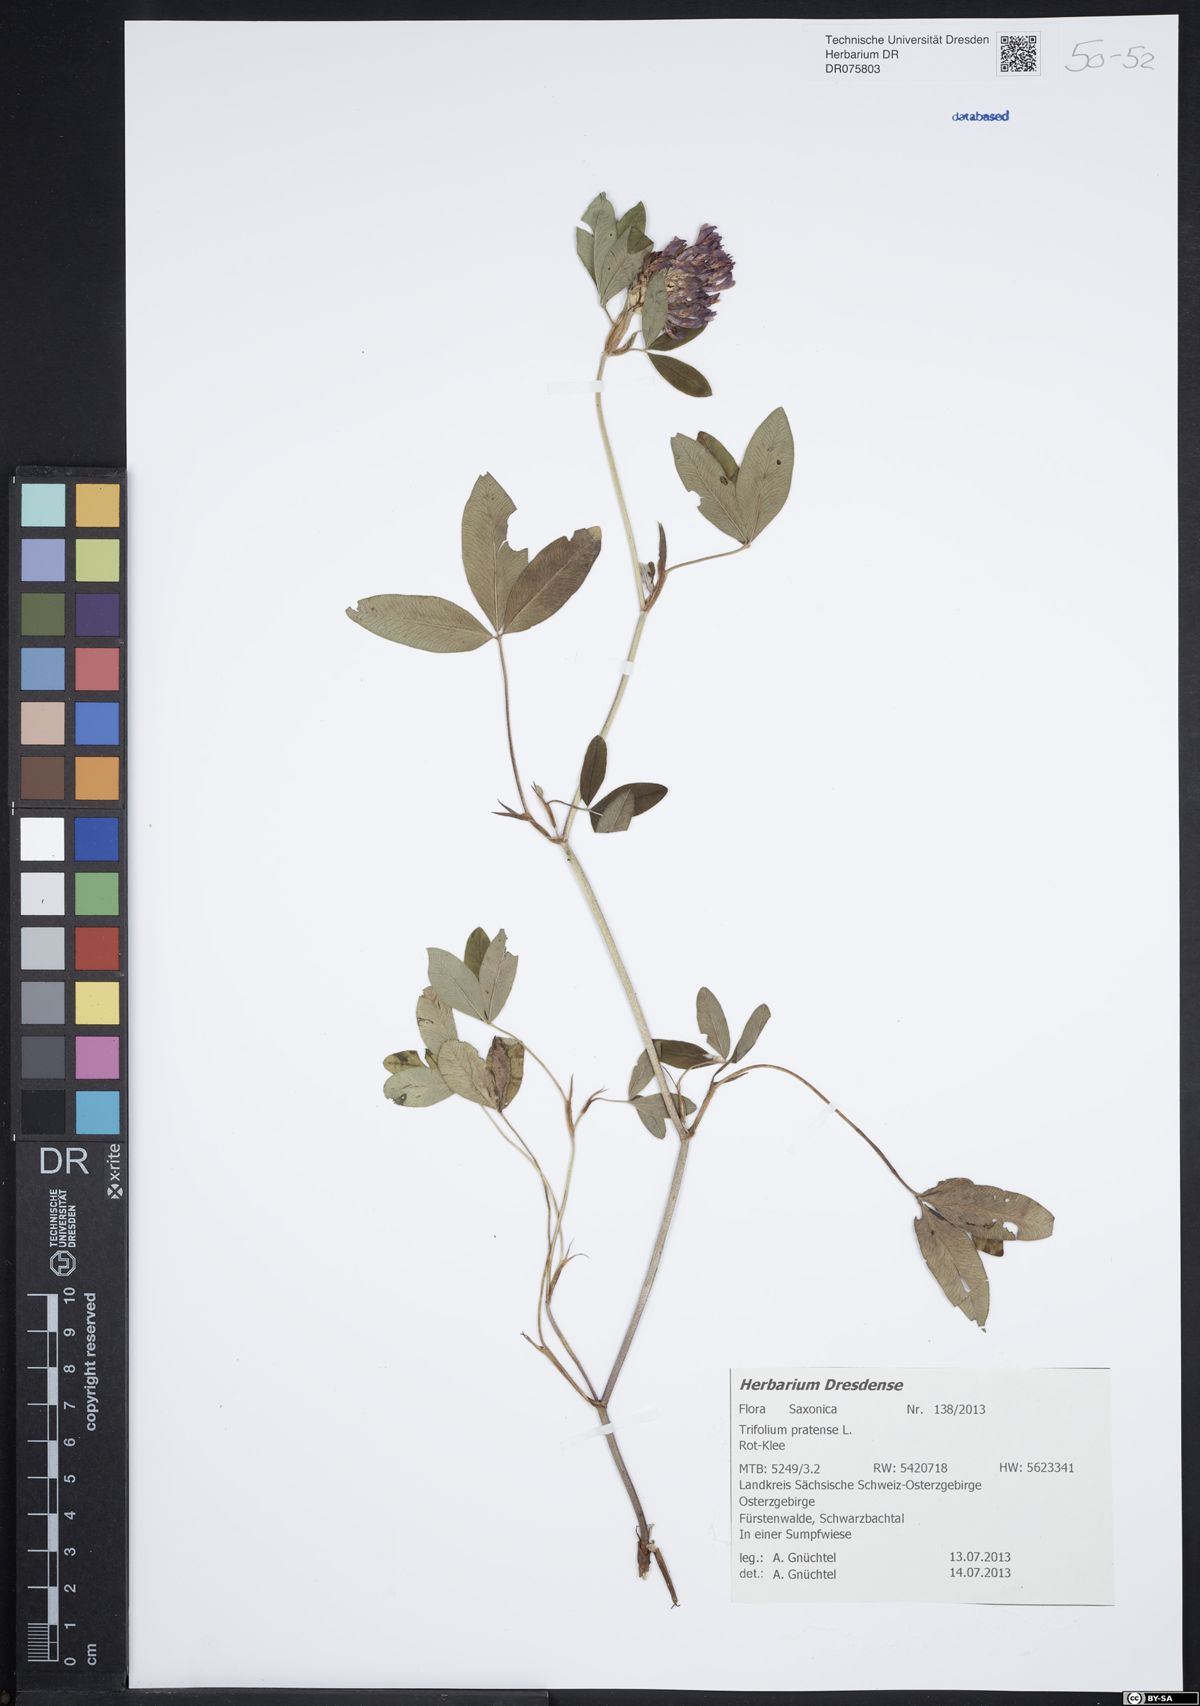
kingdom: Plantae
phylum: Tracheophyta
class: Magnoliopsida
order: Fabales
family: Fabaceae
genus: Trifolium
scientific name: Trifolium pratense
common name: Red clover
